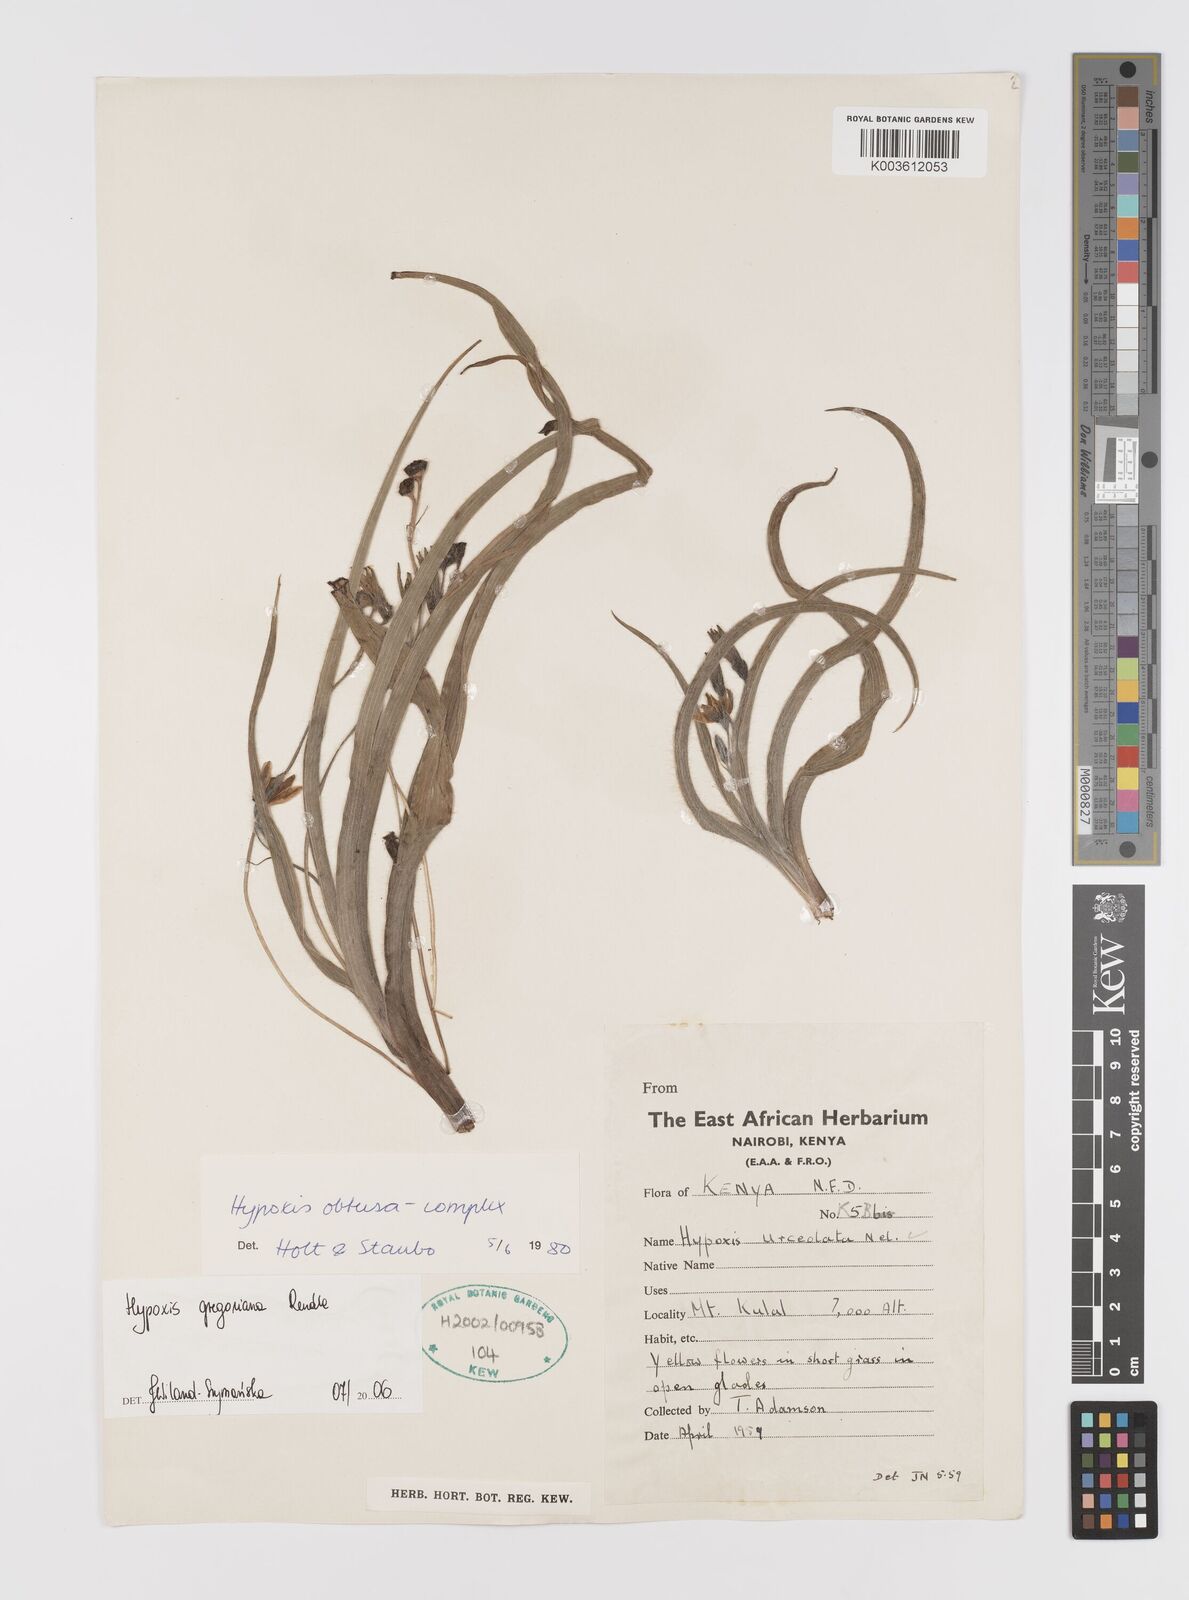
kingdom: Plantae
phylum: Tracheophyta
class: Liliopsida
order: Asparagales
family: Hypoxidaceae
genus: Hypoxis
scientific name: Hypoxis gregoriana
